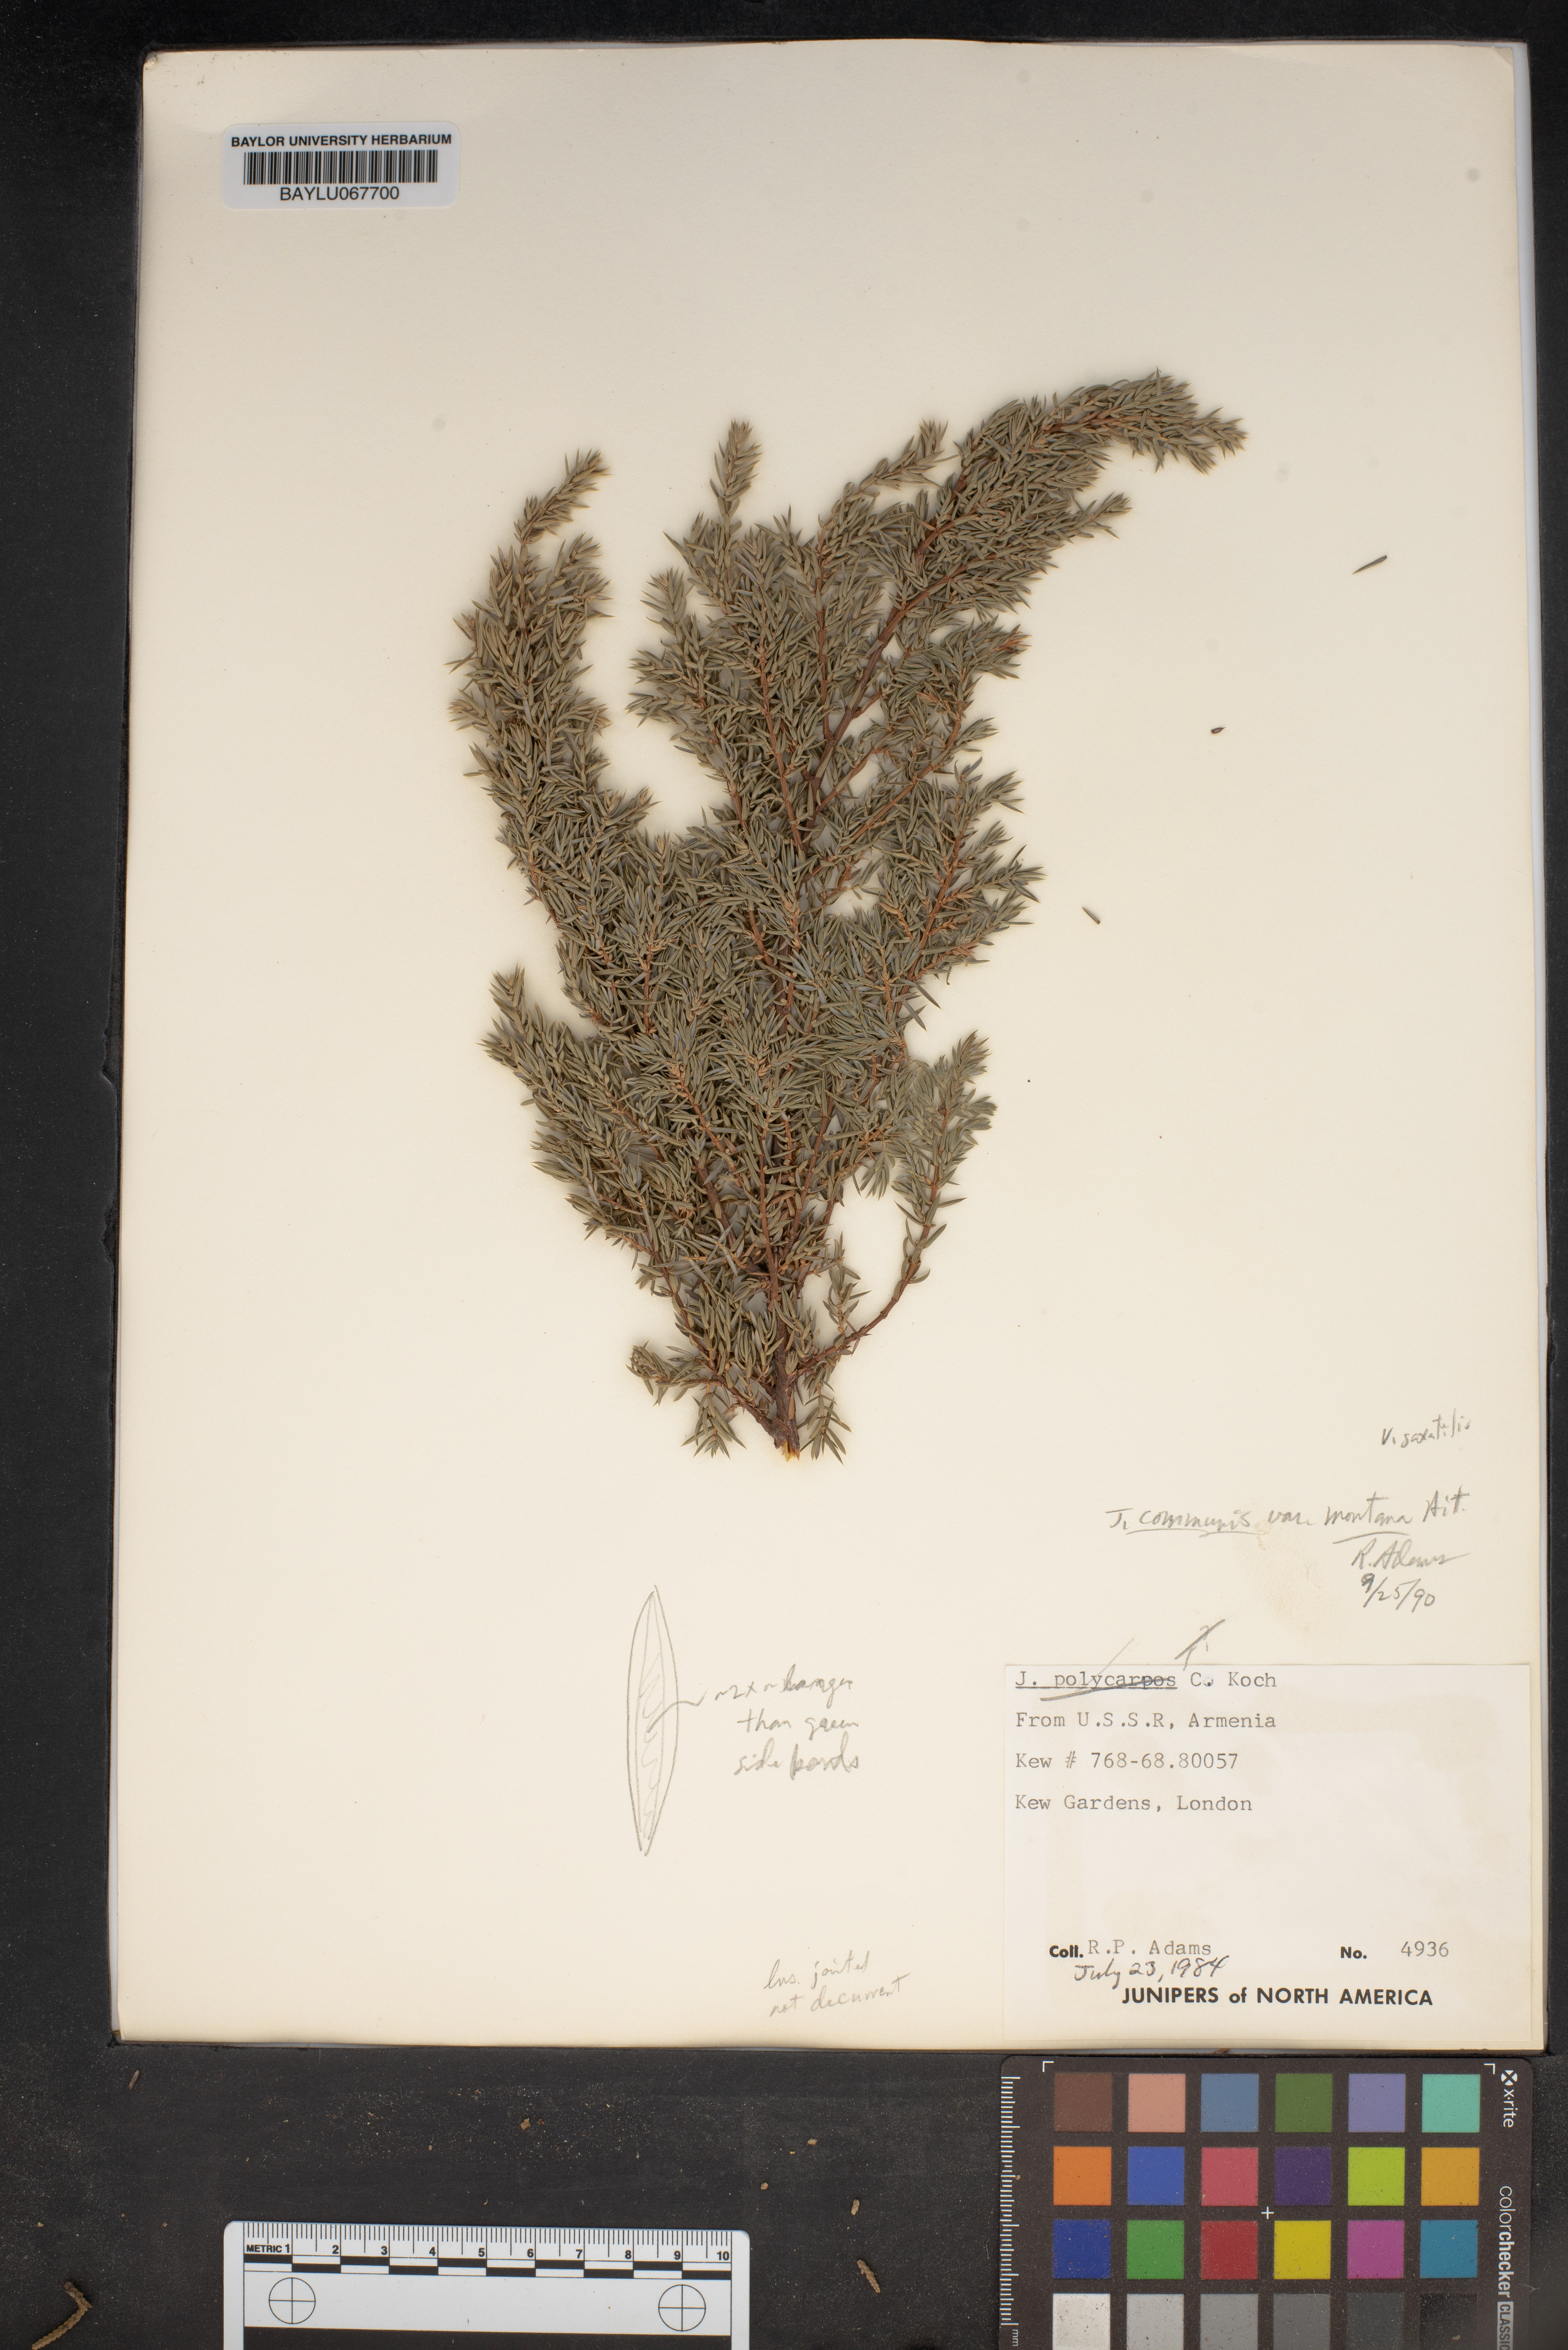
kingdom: Plantae
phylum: Tracheophyta
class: Pinopsida
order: Pinales
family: Cupressaceae
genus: Juniperus
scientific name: Juniperus communis
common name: Common juniper
